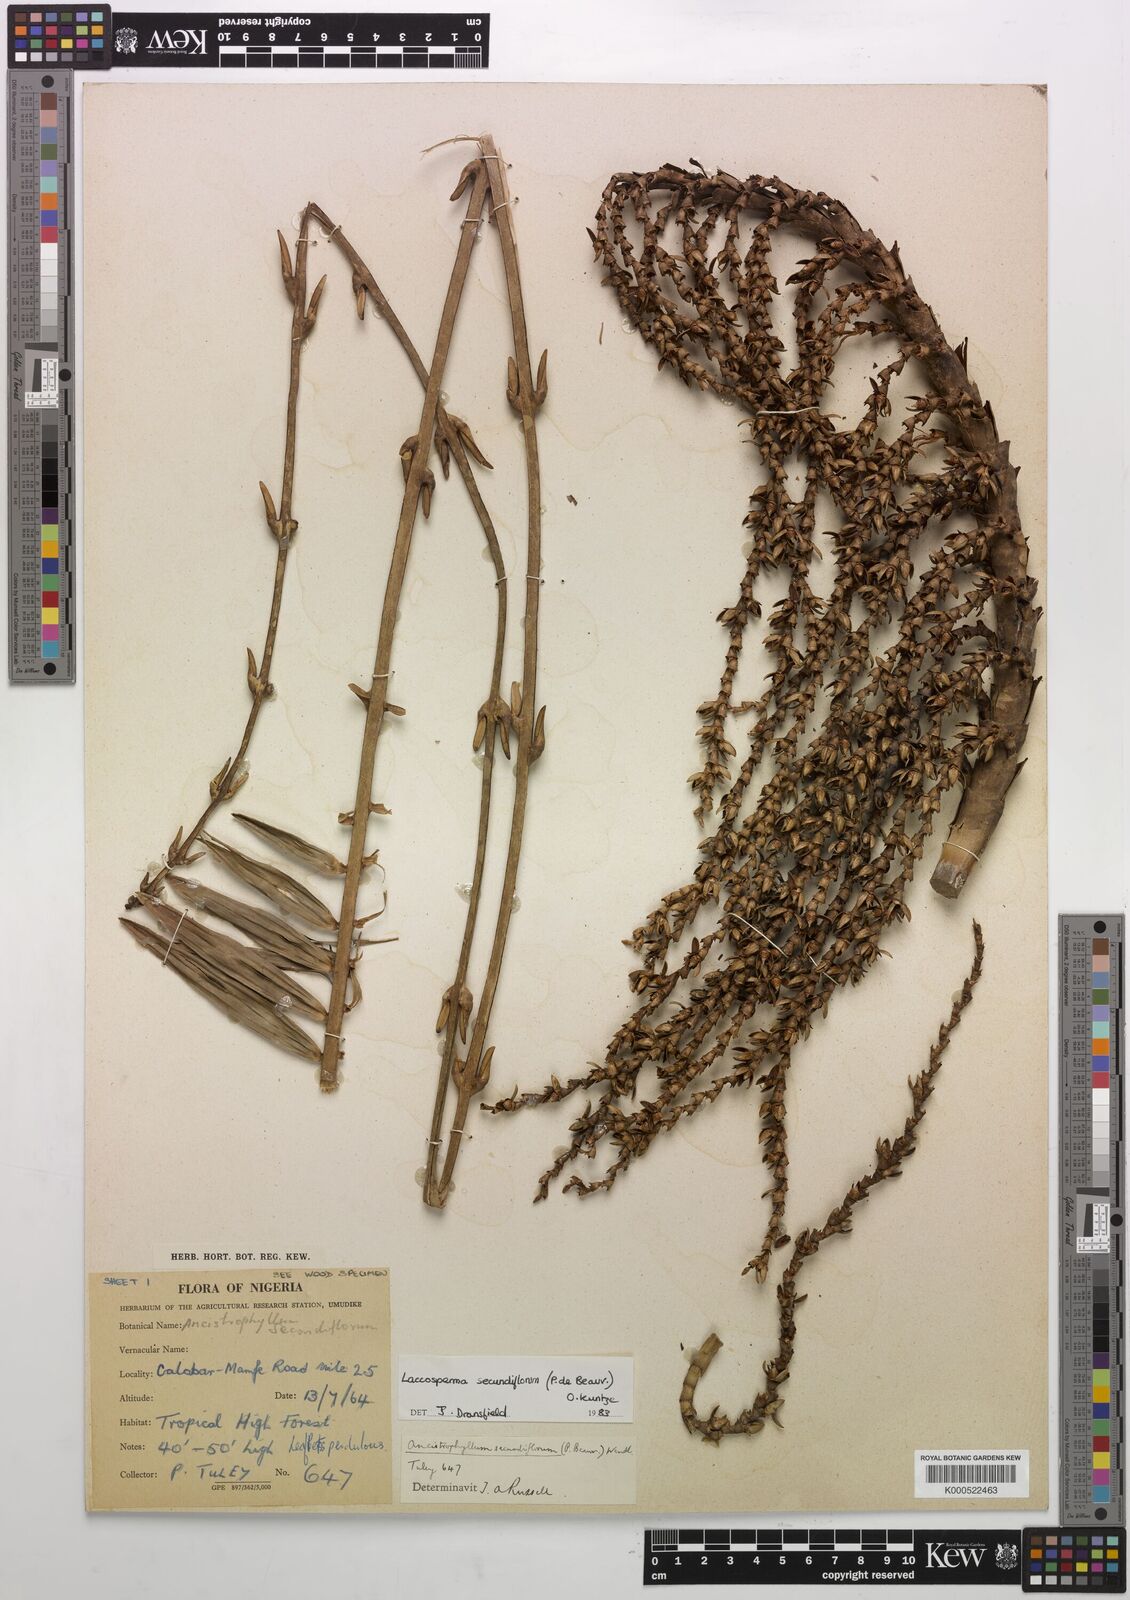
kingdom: Plantae
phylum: Tracheophyta
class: Liliopsida
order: Arecales
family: Arecaceae
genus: Laccosperma
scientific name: Laccosperma secundiflorum
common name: Rattan
